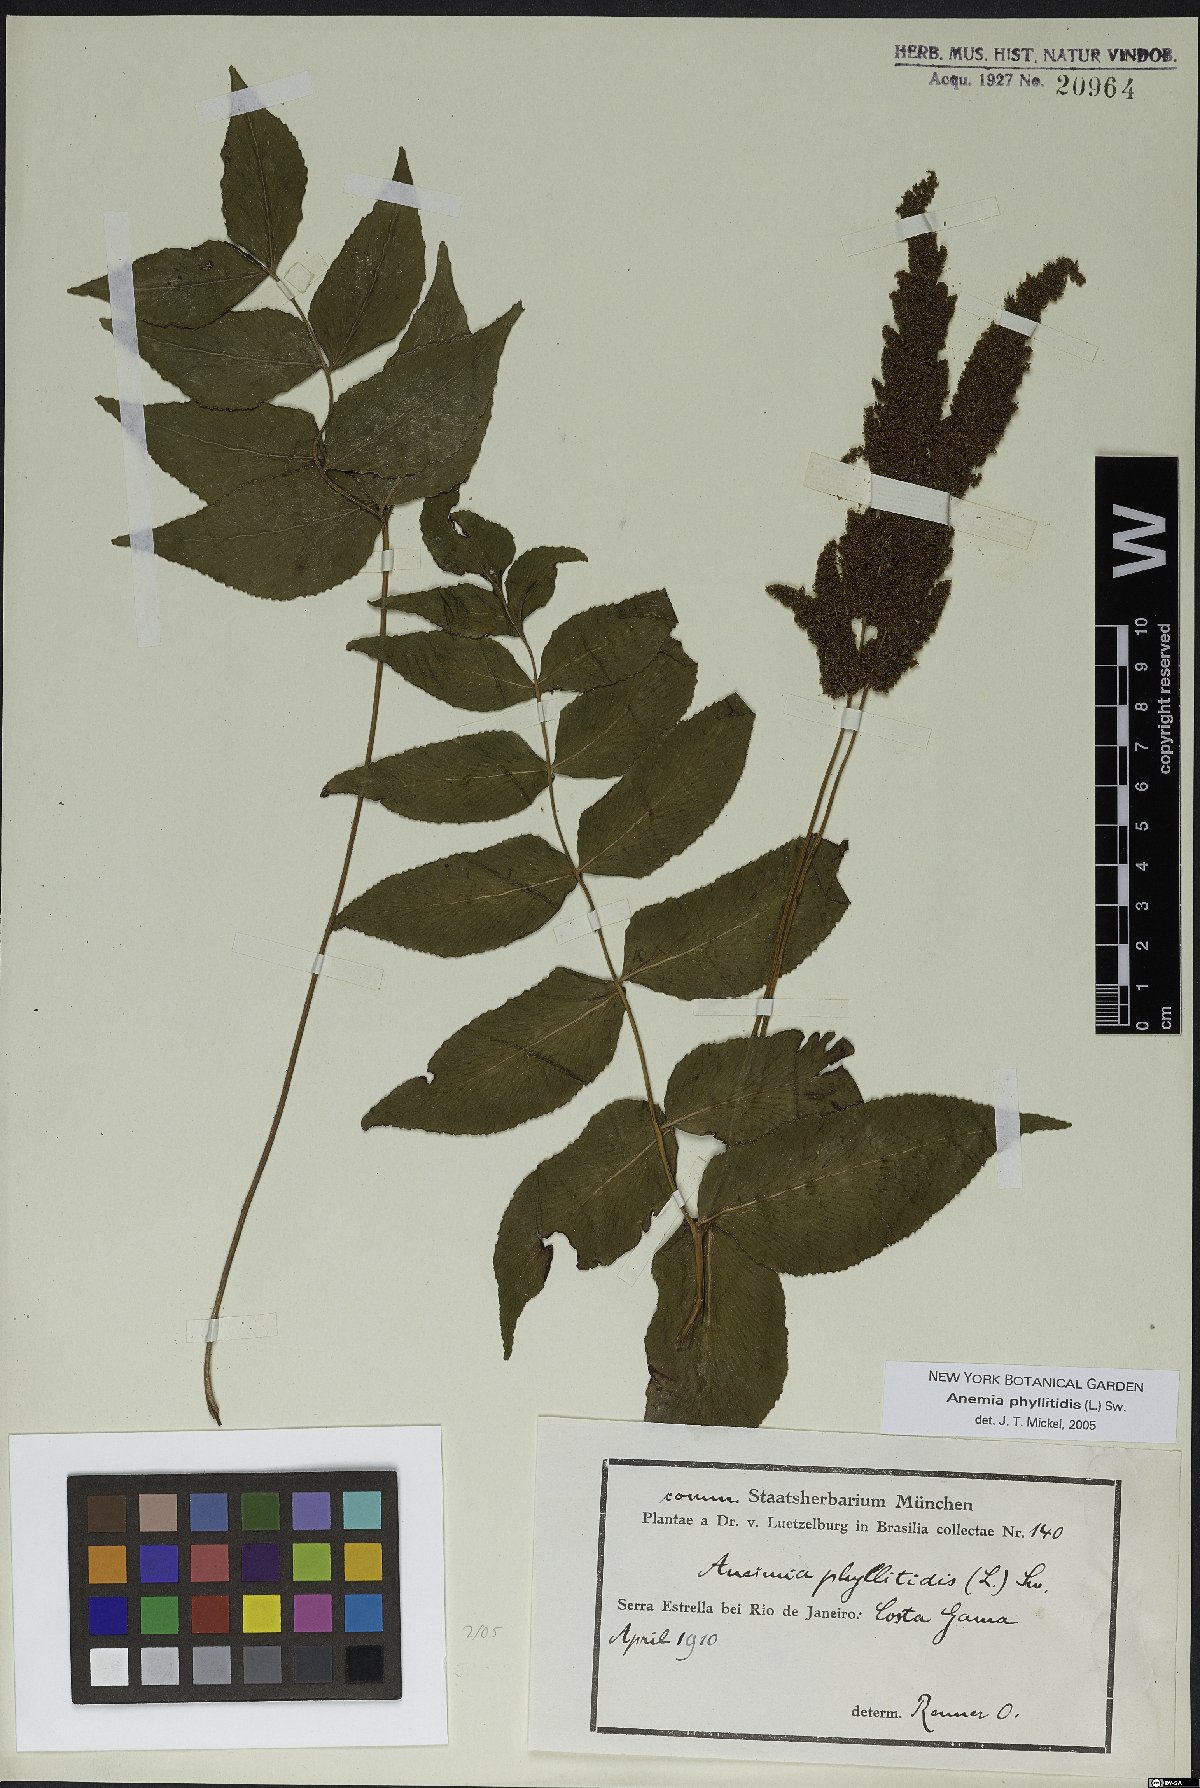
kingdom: Plantae
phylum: Tracheophyta
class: Polypodiopsida
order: Schizaeales
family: Anemiaceae
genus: Anemia
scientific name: Anemia phyllitidis
